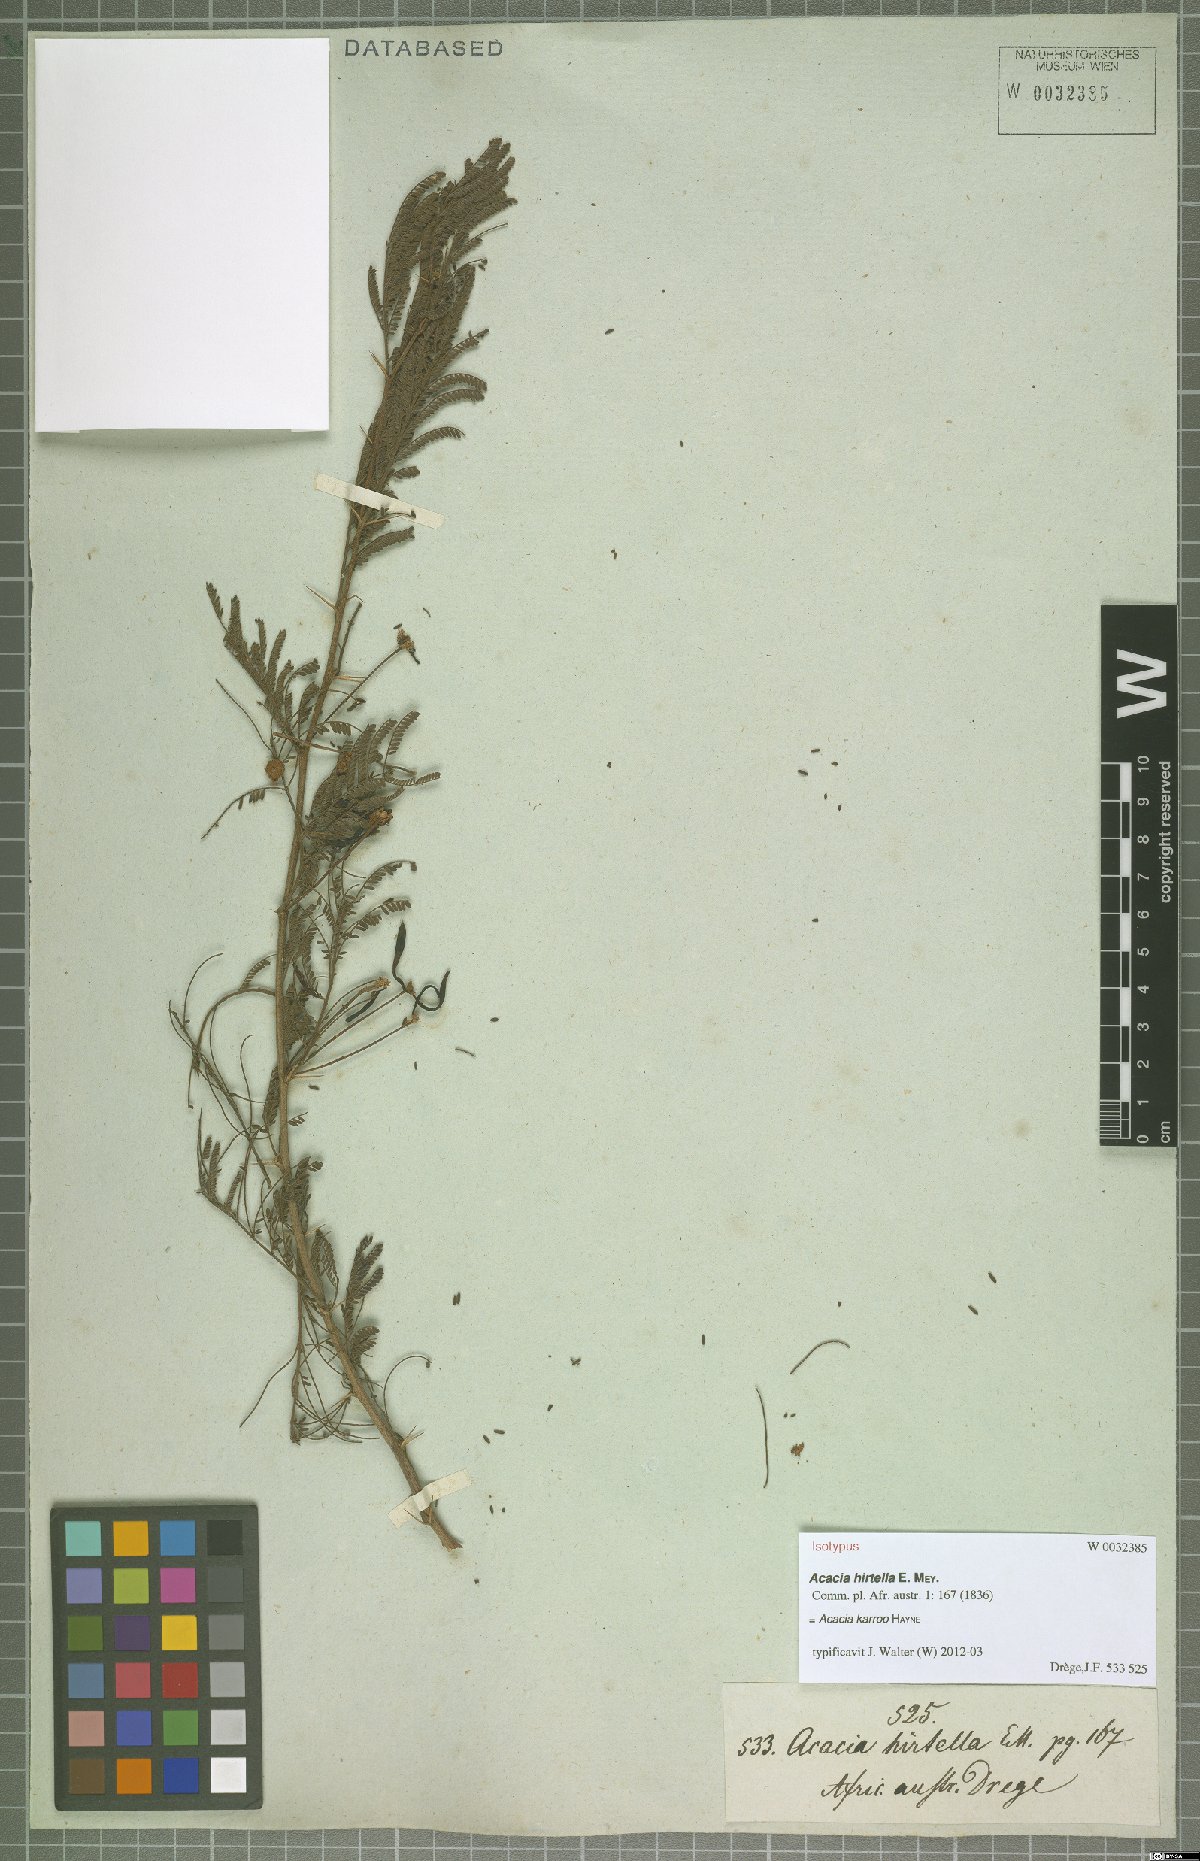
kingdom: Plantae
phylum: Tracheophyta
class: Magnoliopsida
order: Fabales
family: Fabaceae
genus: Vachellia
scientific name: Vachellia karroo
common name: Sweet thorn
